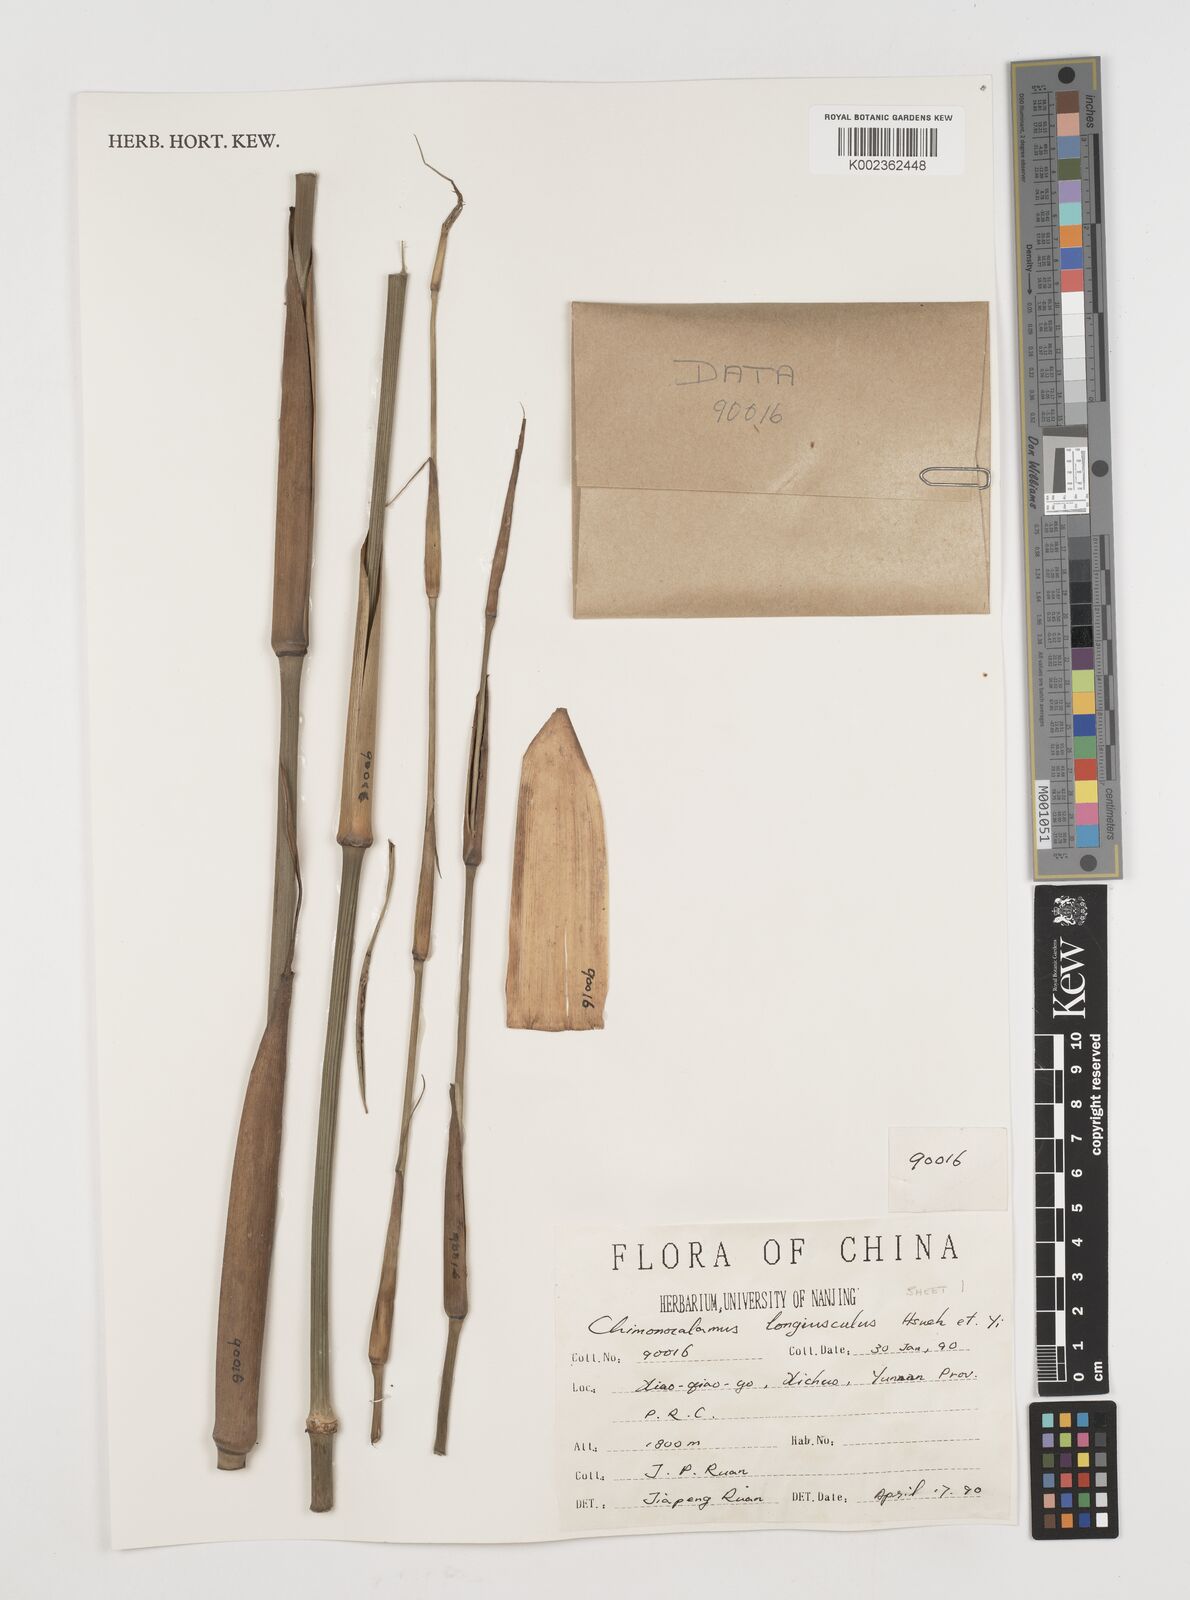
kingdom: Plantae
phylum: Tracheophyta
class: Liliopsida
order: Poales
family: Poaceae
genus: Chimonocalamus
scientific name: Chimonocalamus longiusculus
